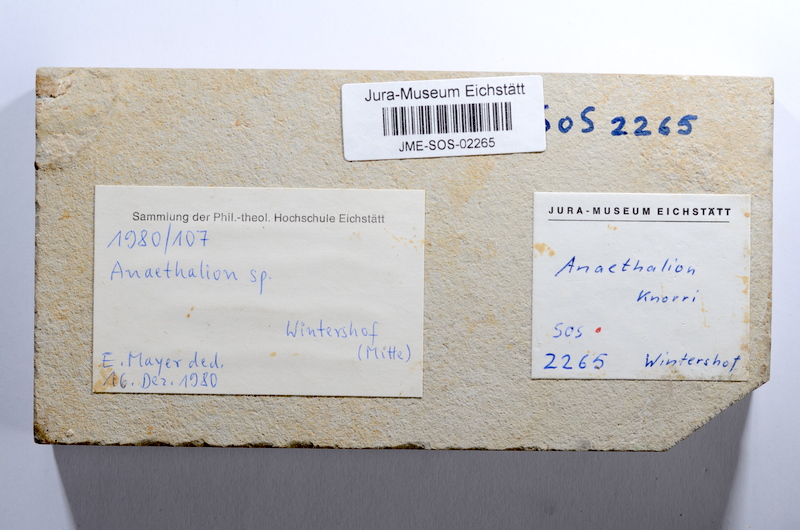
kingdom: Animalia
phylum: Chordata
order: Elopiformes
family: Anaethalionidae
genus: Anaethalion
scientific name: Anaethalion knorri
